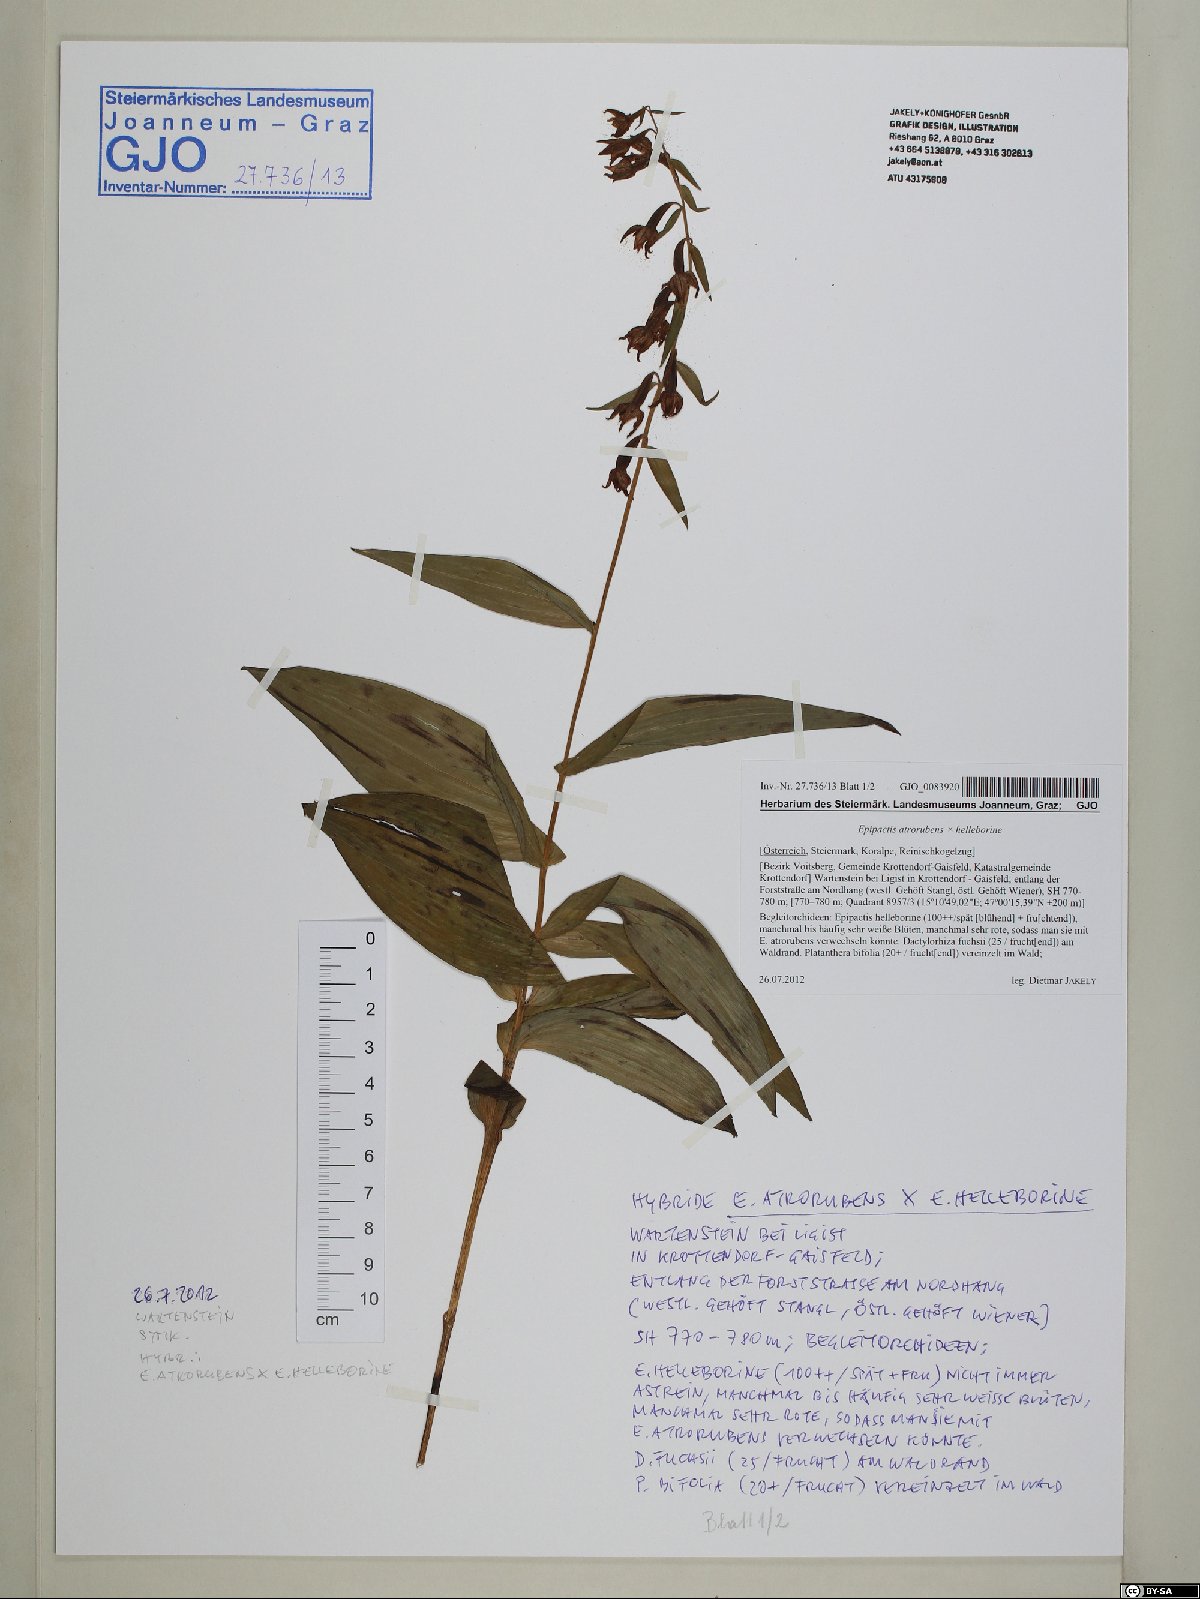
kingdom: Plantae
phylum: Tracheophyta
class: Liliopsida
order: Asparagales
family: Orchidaceae
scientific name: Orchidaceae
